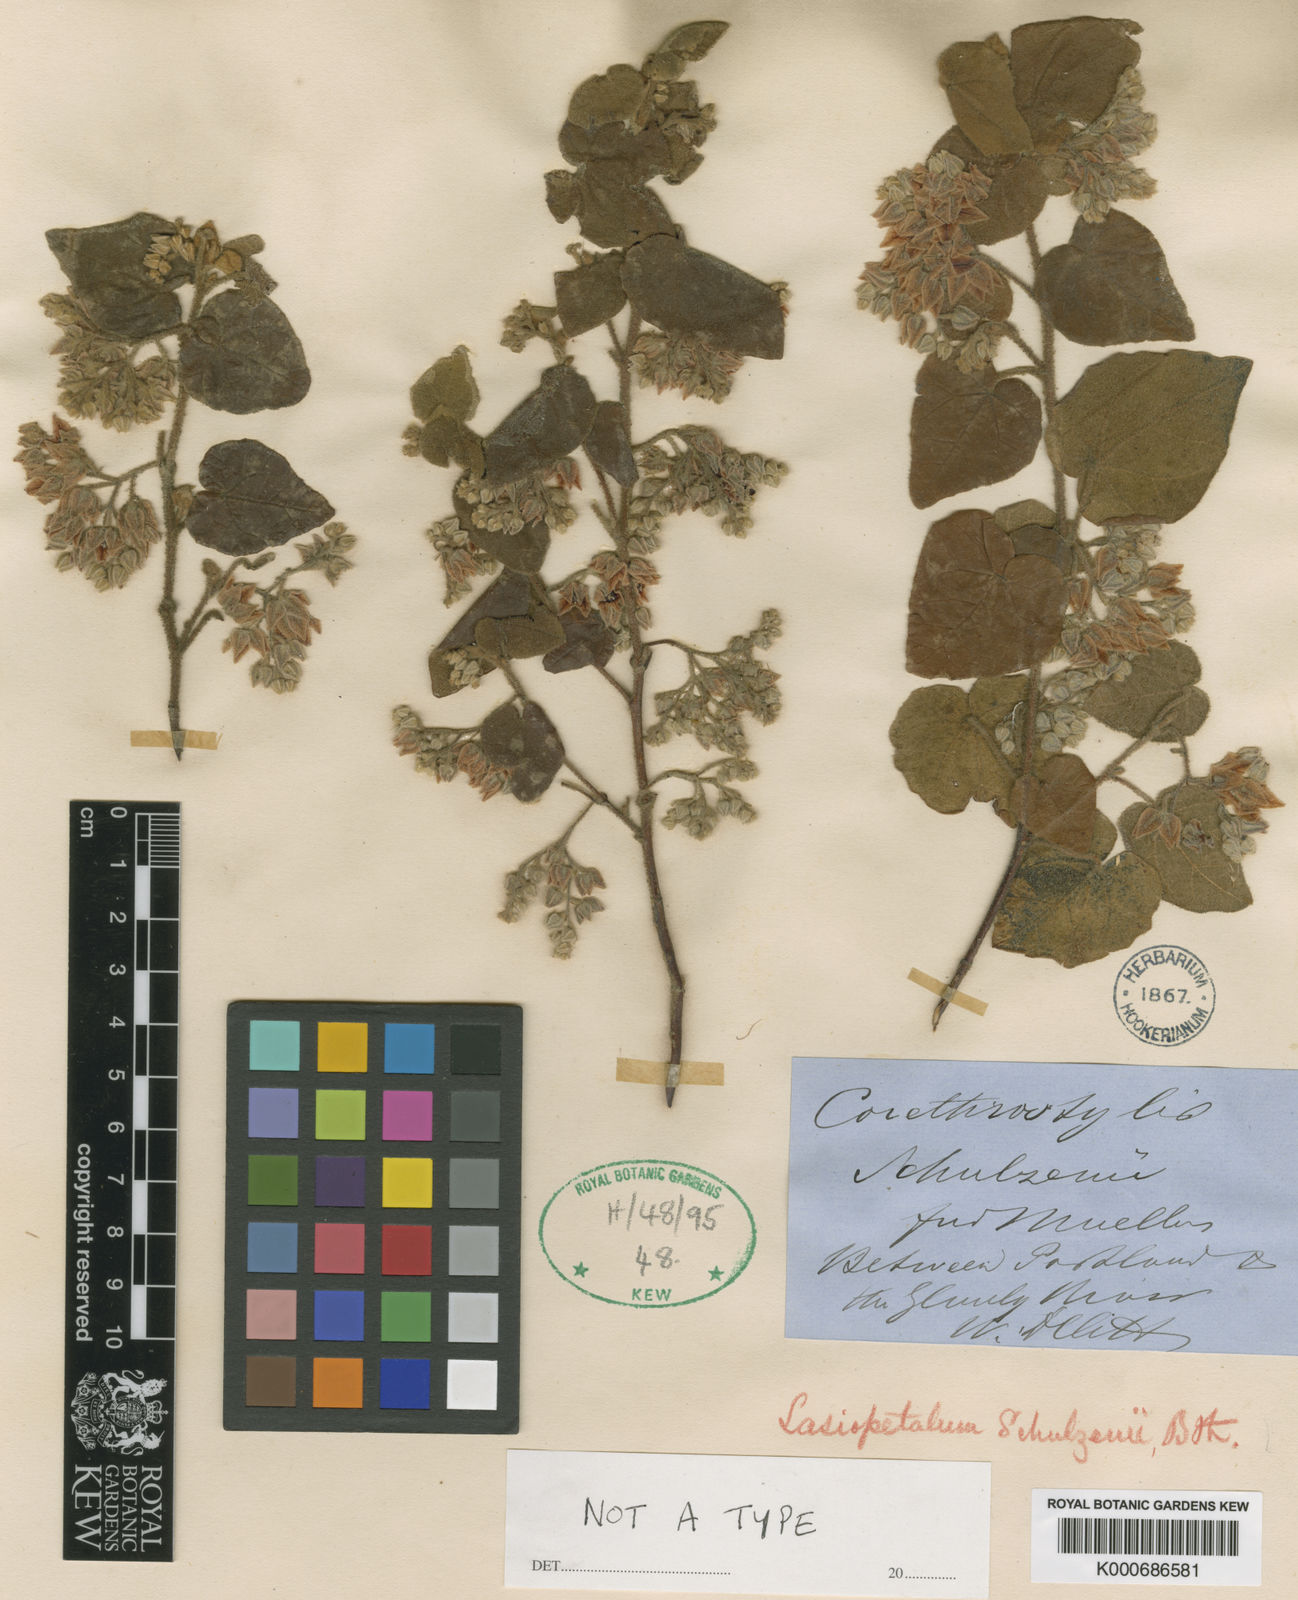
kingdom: Plantae
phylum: Tracheophyta
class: Magnoliopsida
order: Malvales
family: Malvaceae
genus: Lasiopetalum
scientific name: Lasiopetalum schulzenii
